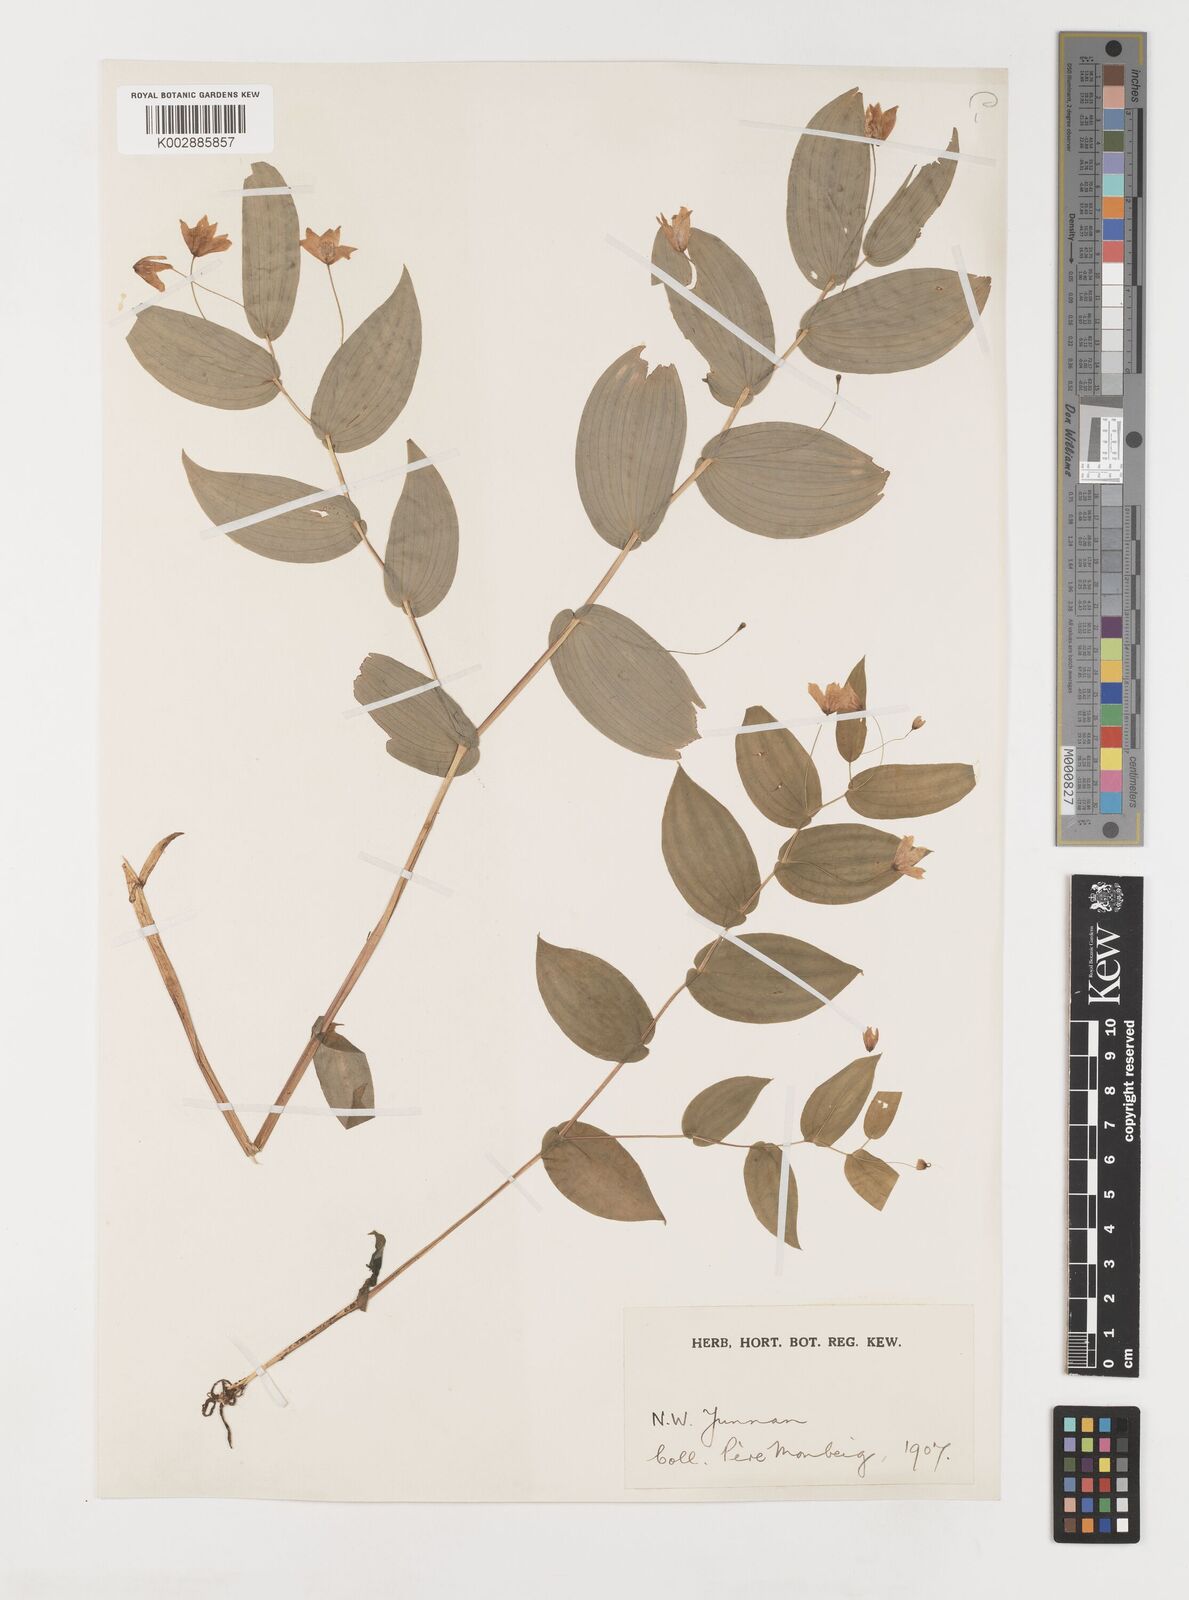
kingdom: Plantae
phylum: Tracheophyta
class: Liliopsida
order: Liliales
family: Liliaceae
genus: Streptopus
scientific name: Streptopus simplex
